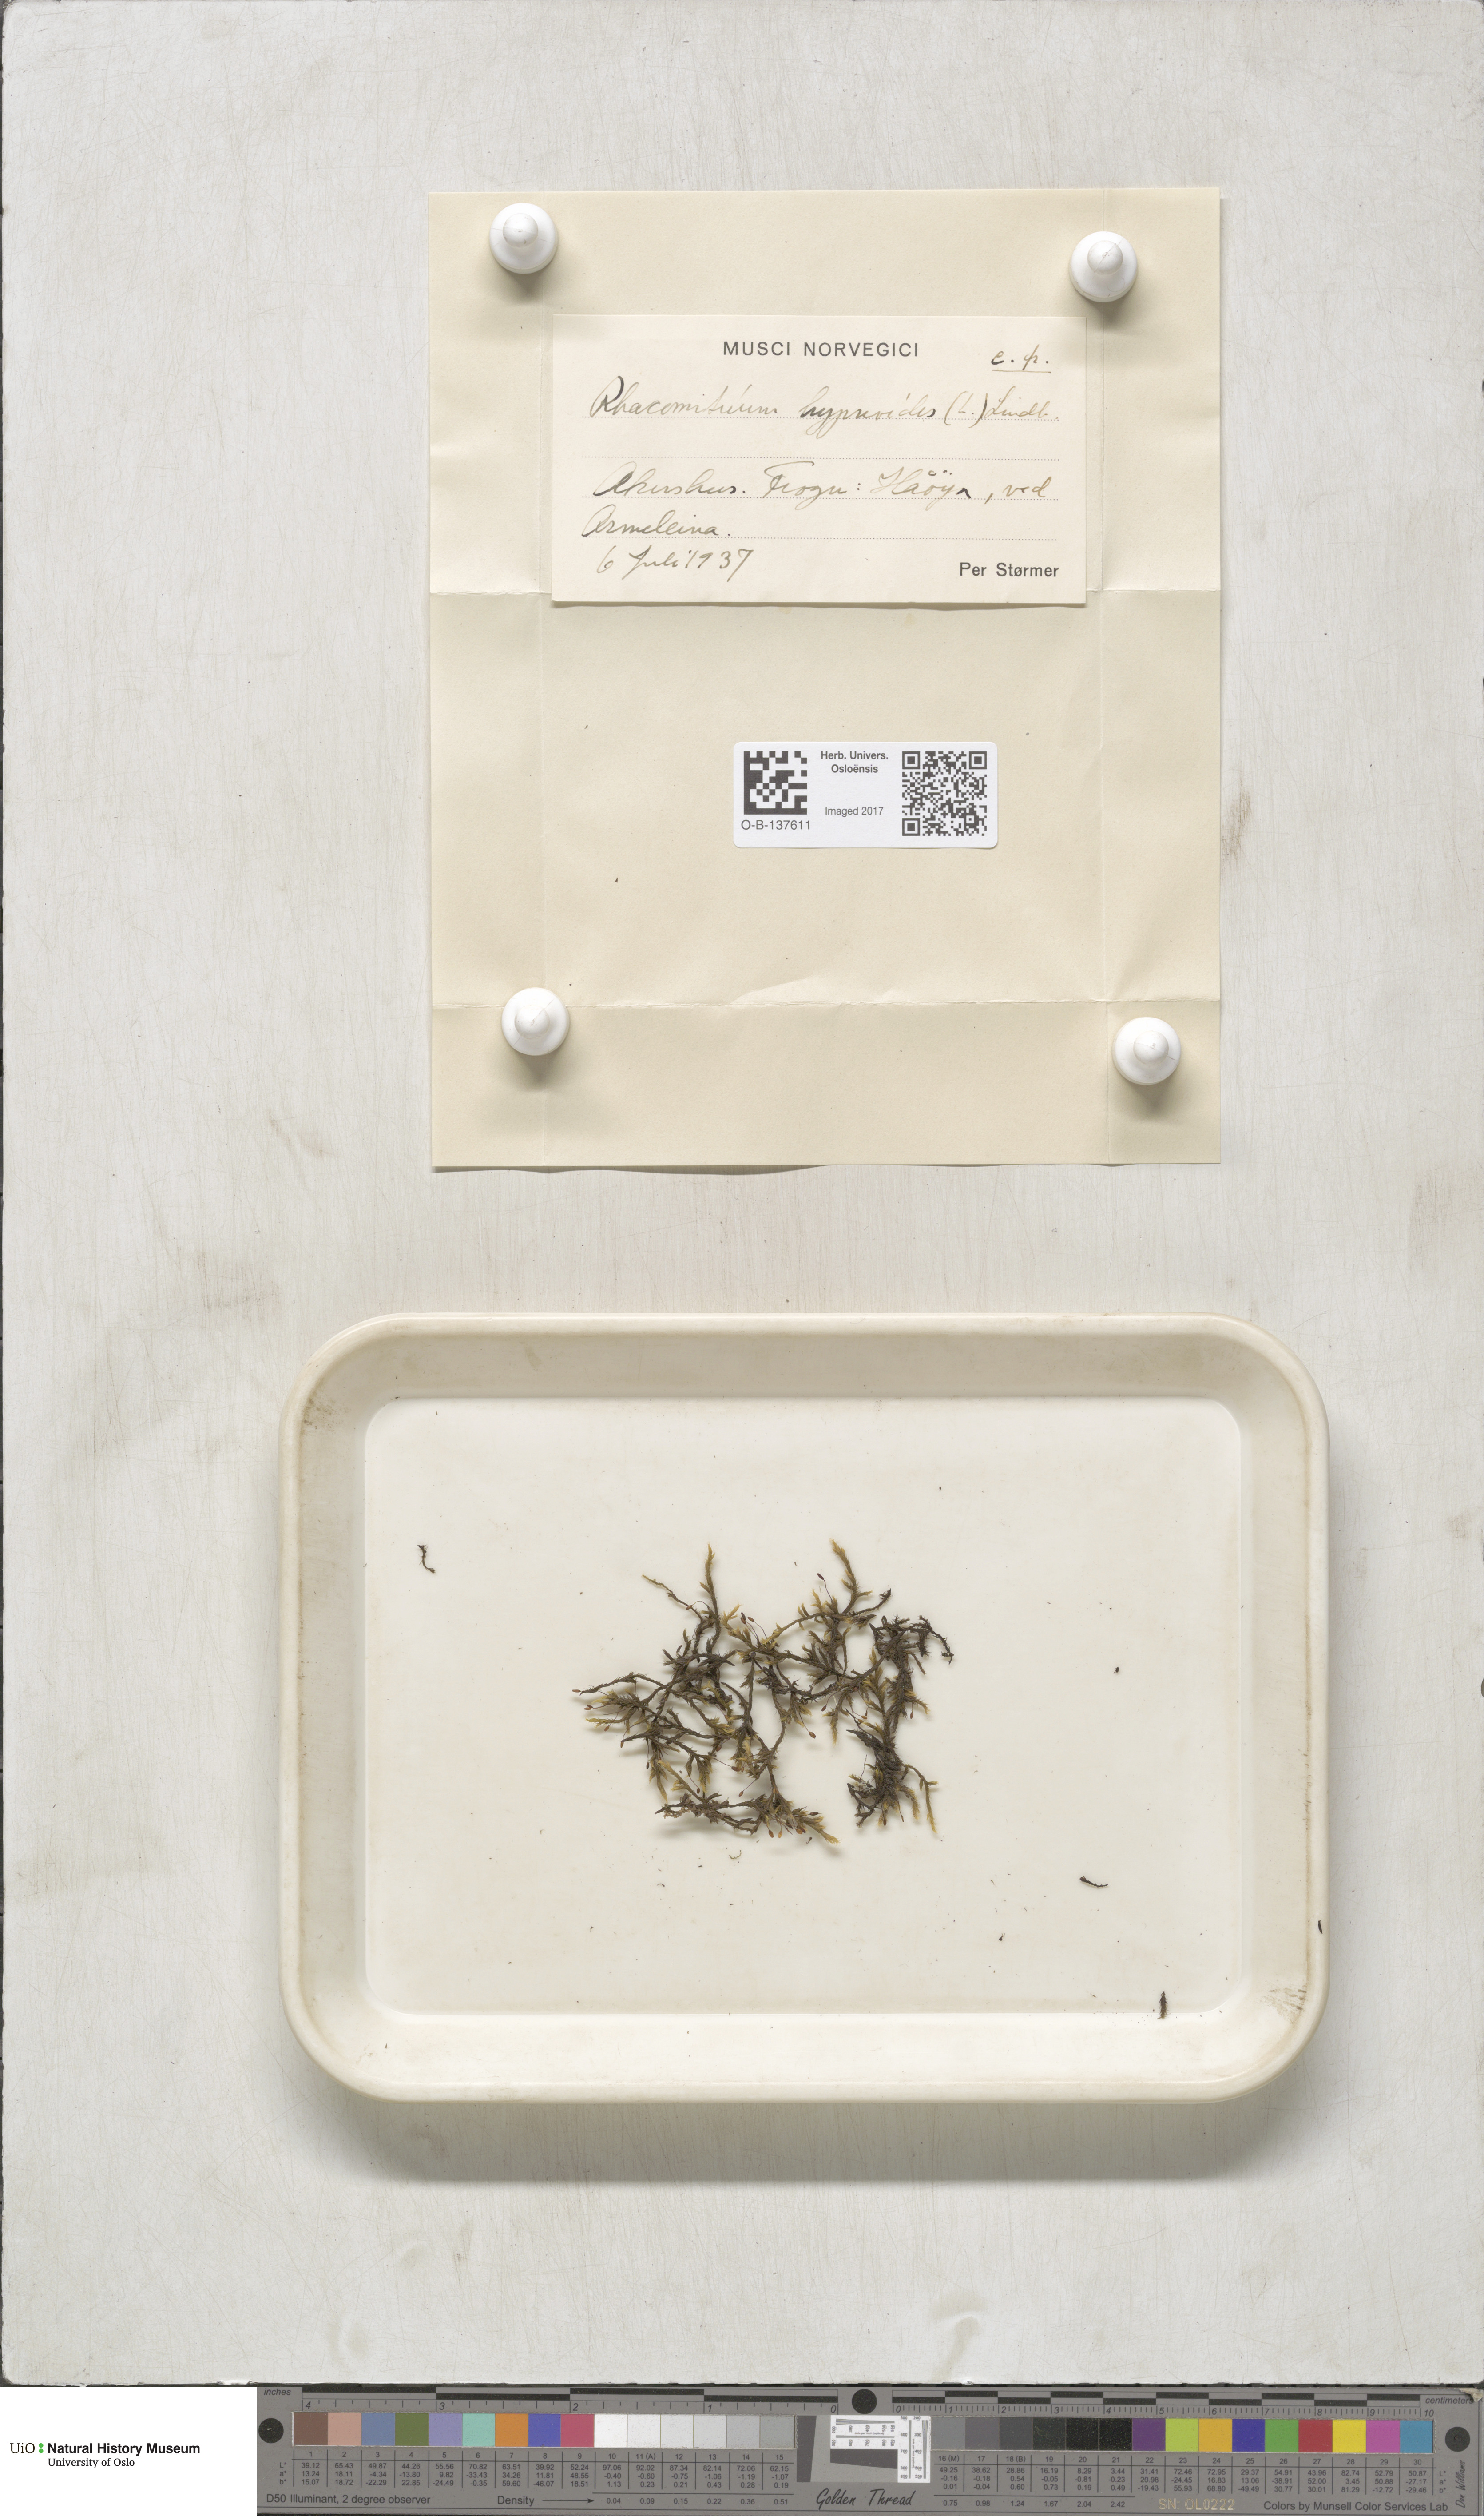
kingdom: Plantae
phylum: Bryophyta
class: Bryopsida
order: Grimmiales
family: Grimmiaceae
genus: Racomitrium
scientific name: Racomitrium lanuginosum
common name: Hoary rock moss
